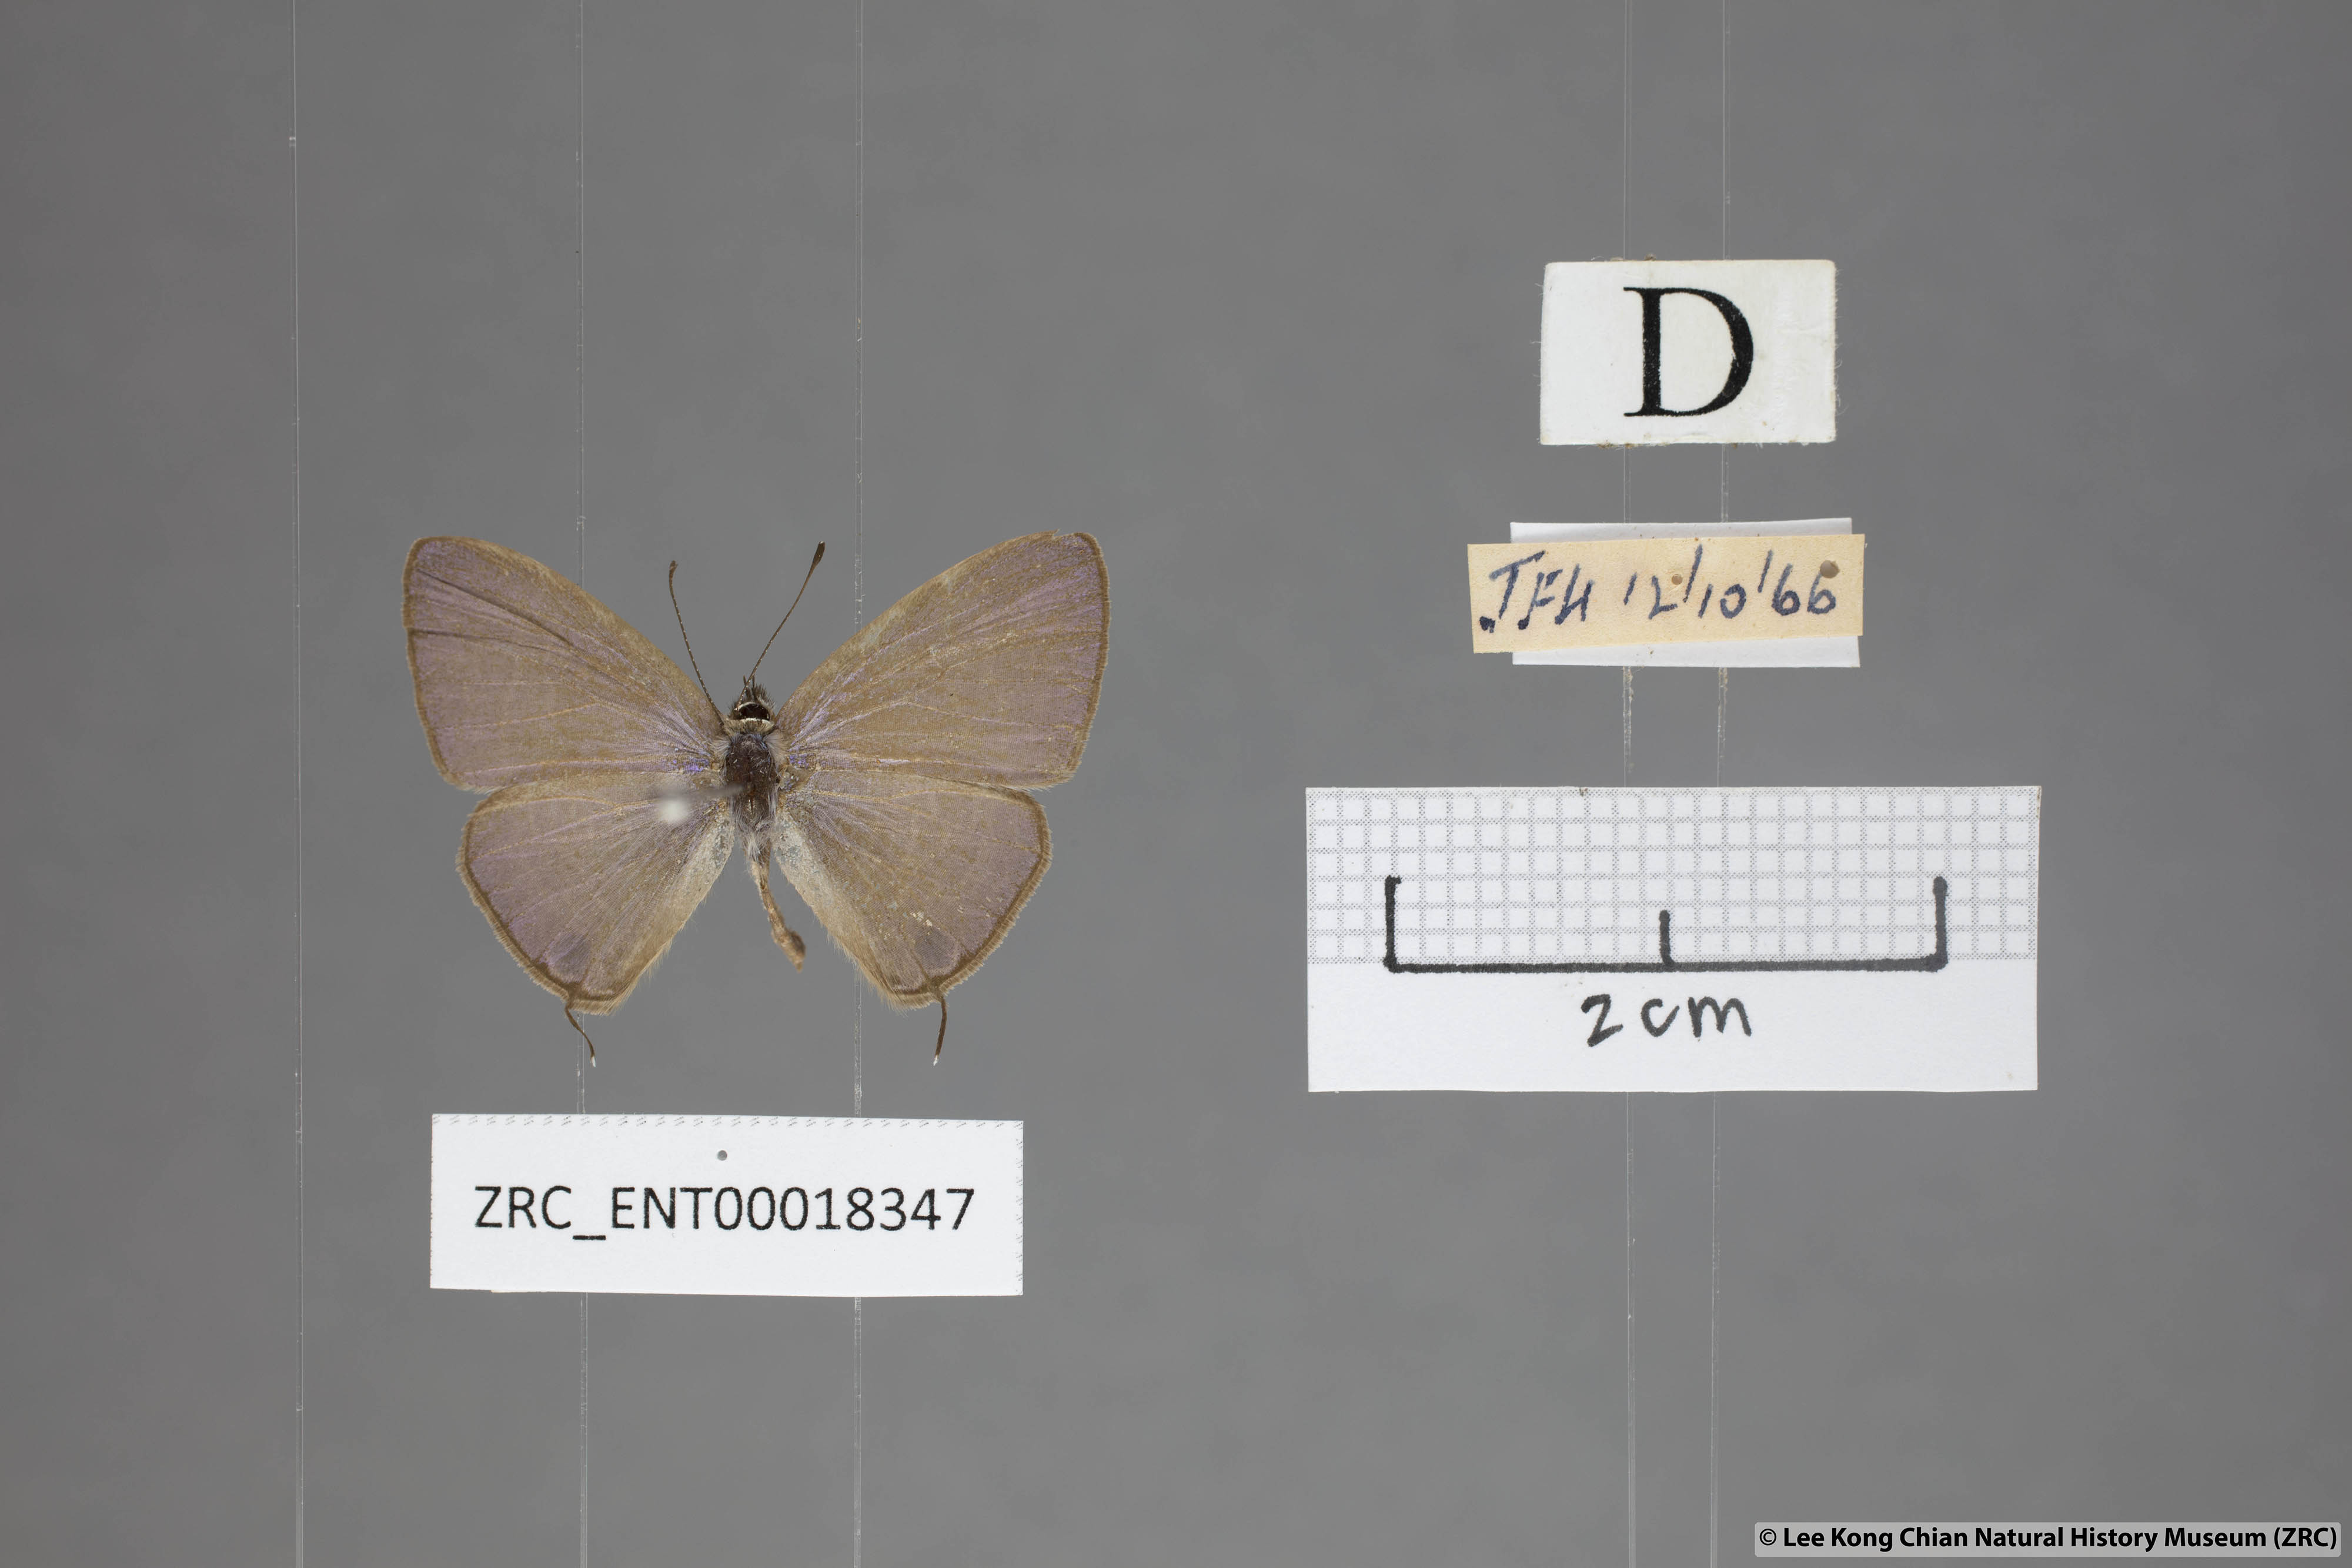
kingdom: Animalia
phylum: Arthropoda
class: Insecta
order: Lepidoptera
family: Lycaenidae
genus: Nacaduba
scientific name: Nacaduba hermus
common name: Pale four-line blue
